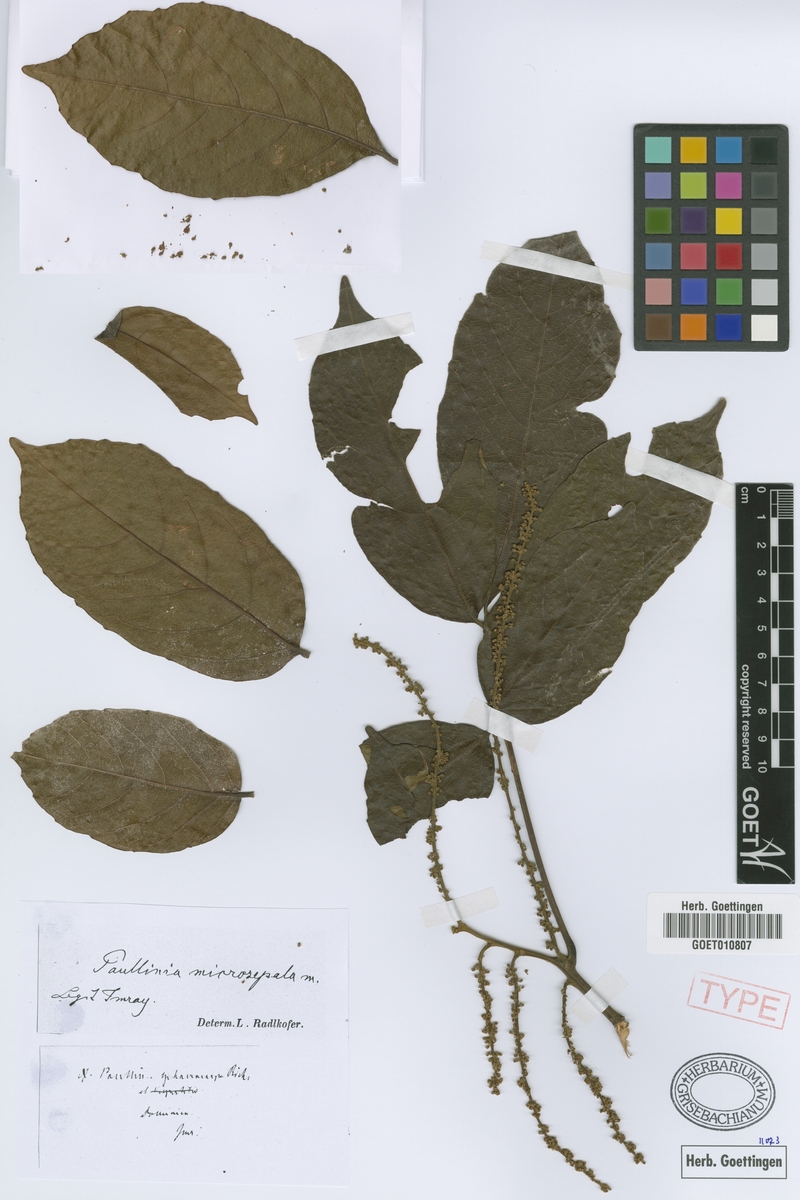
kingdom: Plantae
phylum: Tracheophyta
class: Magnoliopsida
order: Sapindales
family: Sapindaceae
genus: Paullinia
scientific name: Paullinia vespertilio
